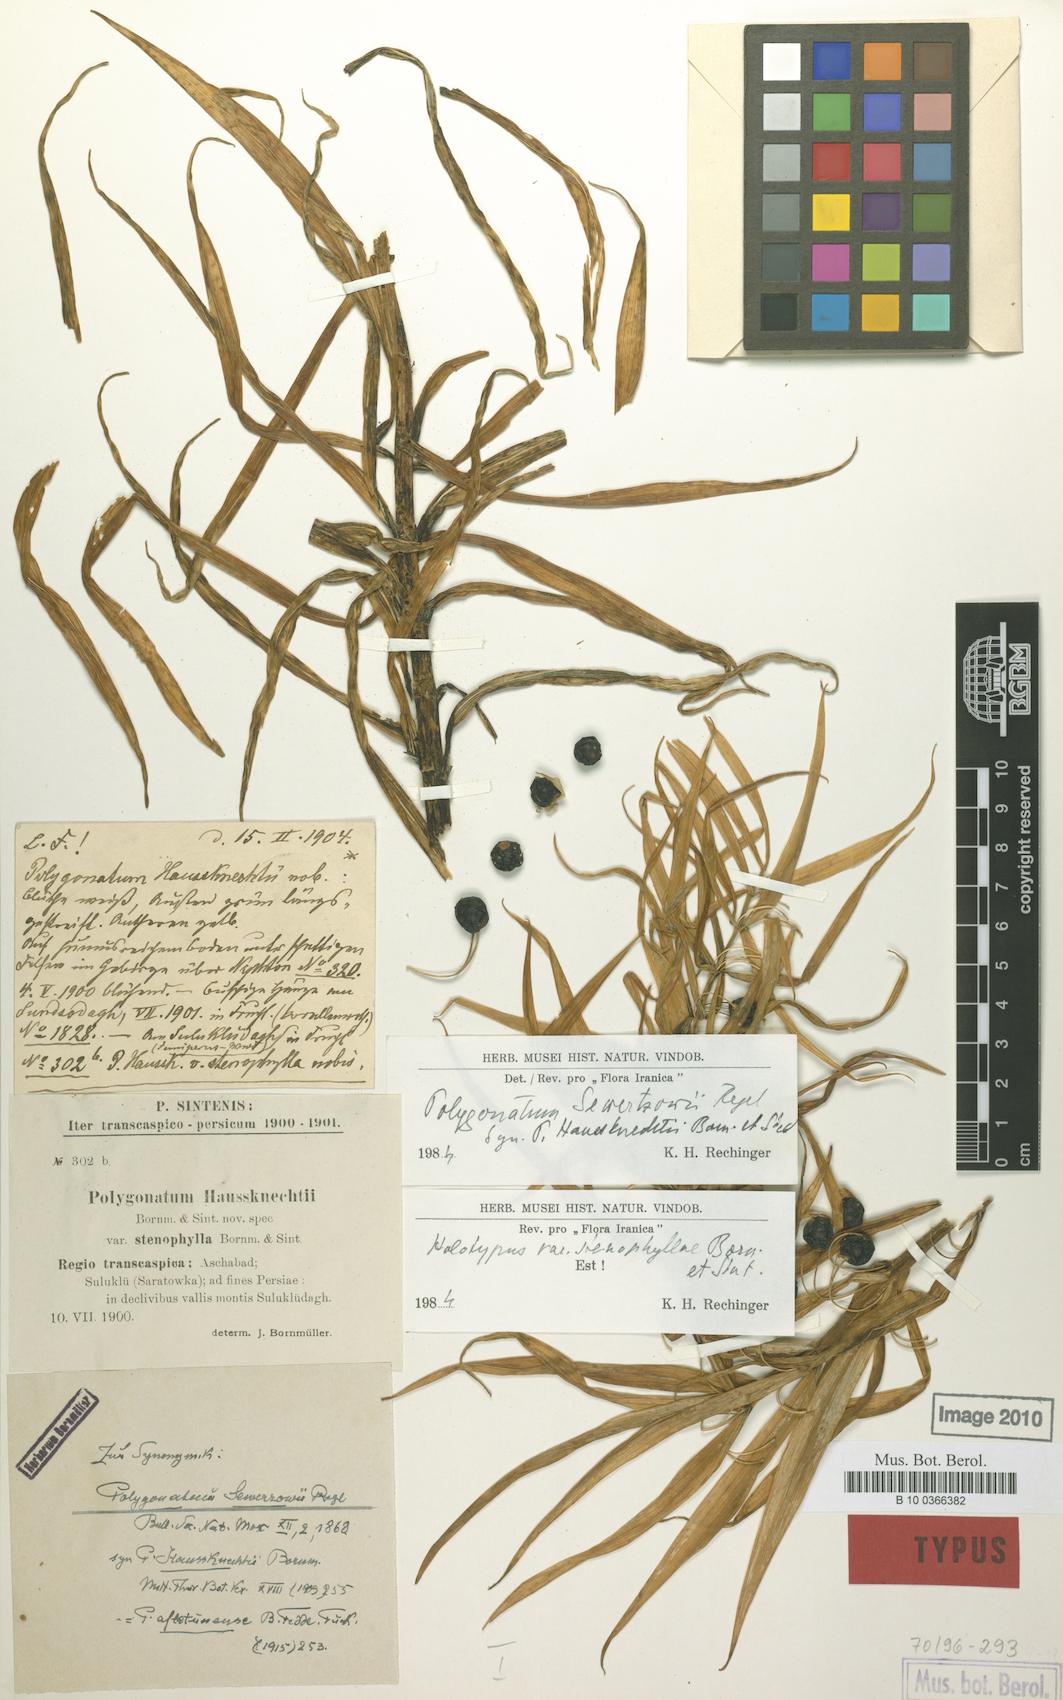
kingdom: Plantae
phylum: Tracheophyta
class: Liliopsida
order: Asparagales
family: Asparagaceae
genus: Polygonatum
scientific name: Polygonatum sewerzowii
